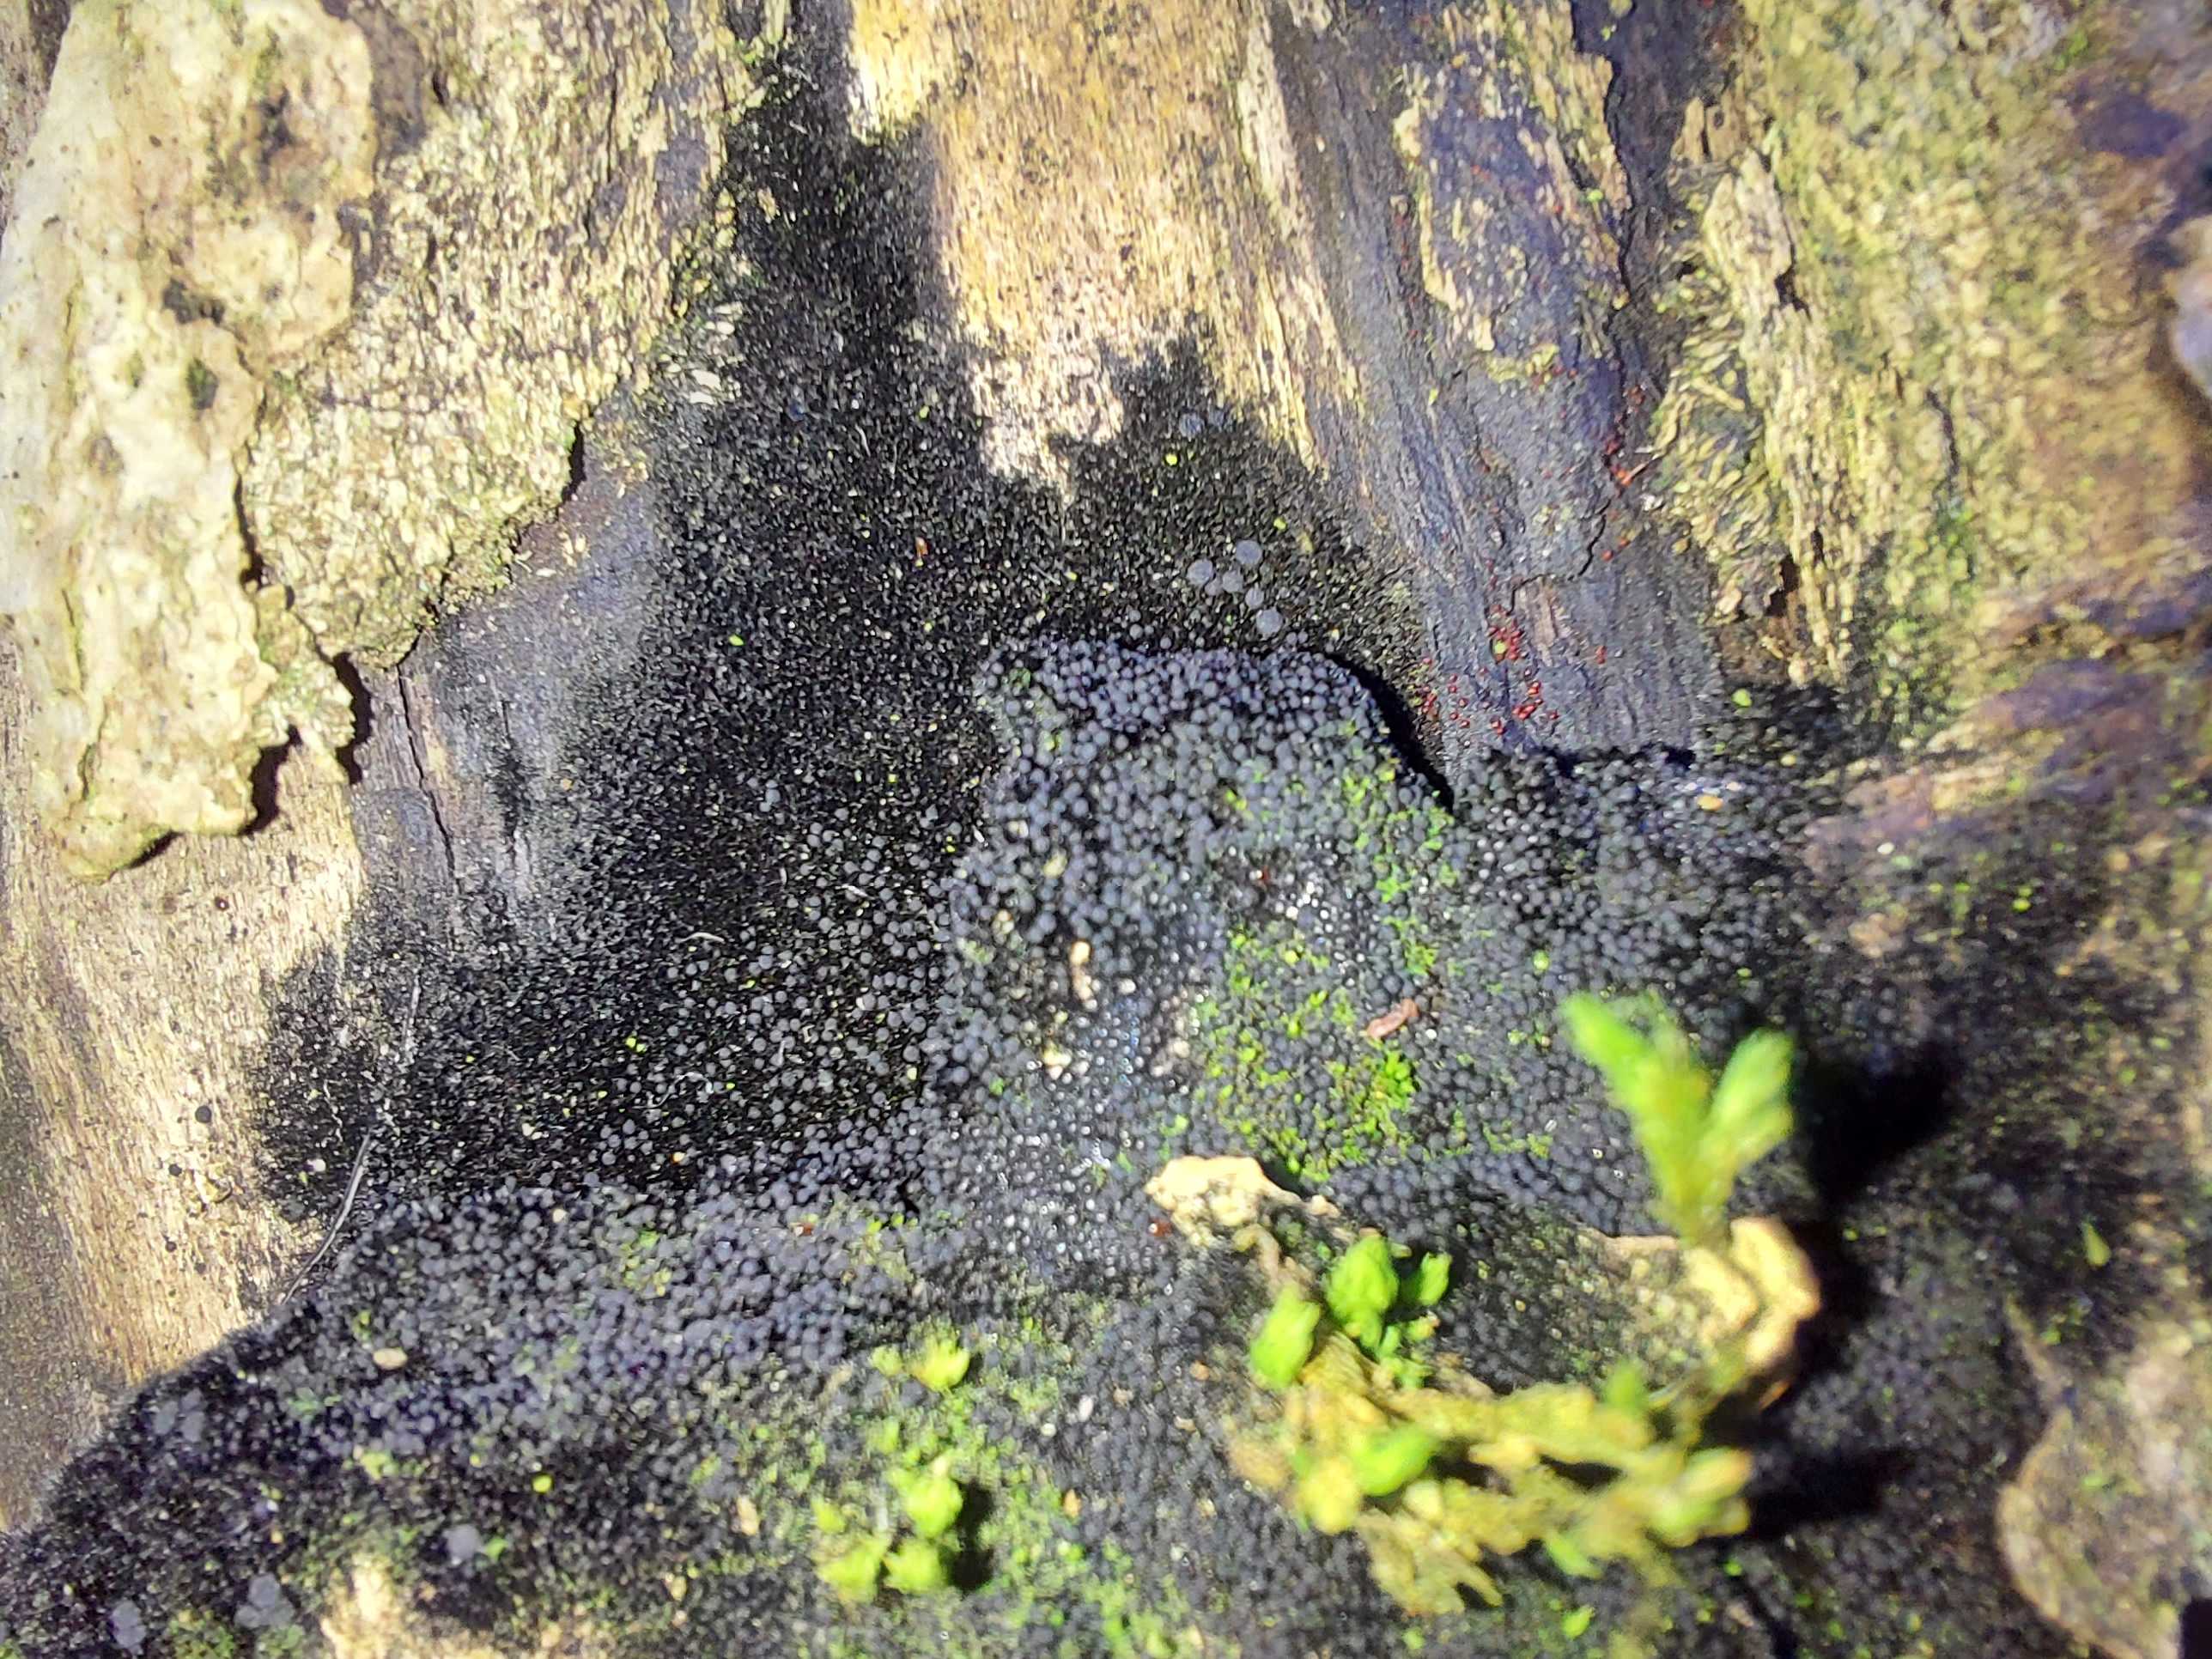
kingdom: Fungi
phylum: Ascomycota
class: Sordariomycetes
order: Coronophorales
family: Chaetosphaerellaceae
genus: Chaetosphaerella
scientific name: Chaetosphaerella phaeostroma
